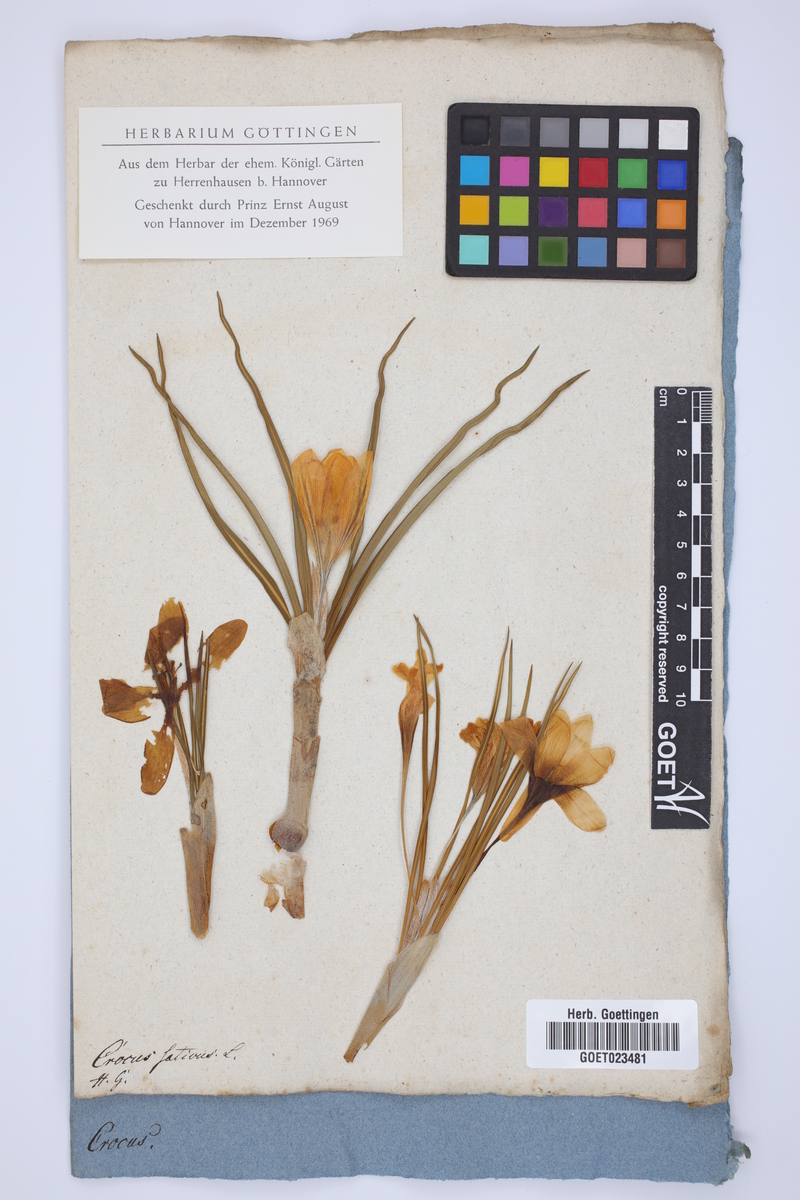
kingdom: Plantae
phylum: Tracheophyta
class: Liliopsida
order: Asparagales
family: Iridaceae
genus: Crocus
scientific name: Crocus sativus
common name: Saffron crocus
